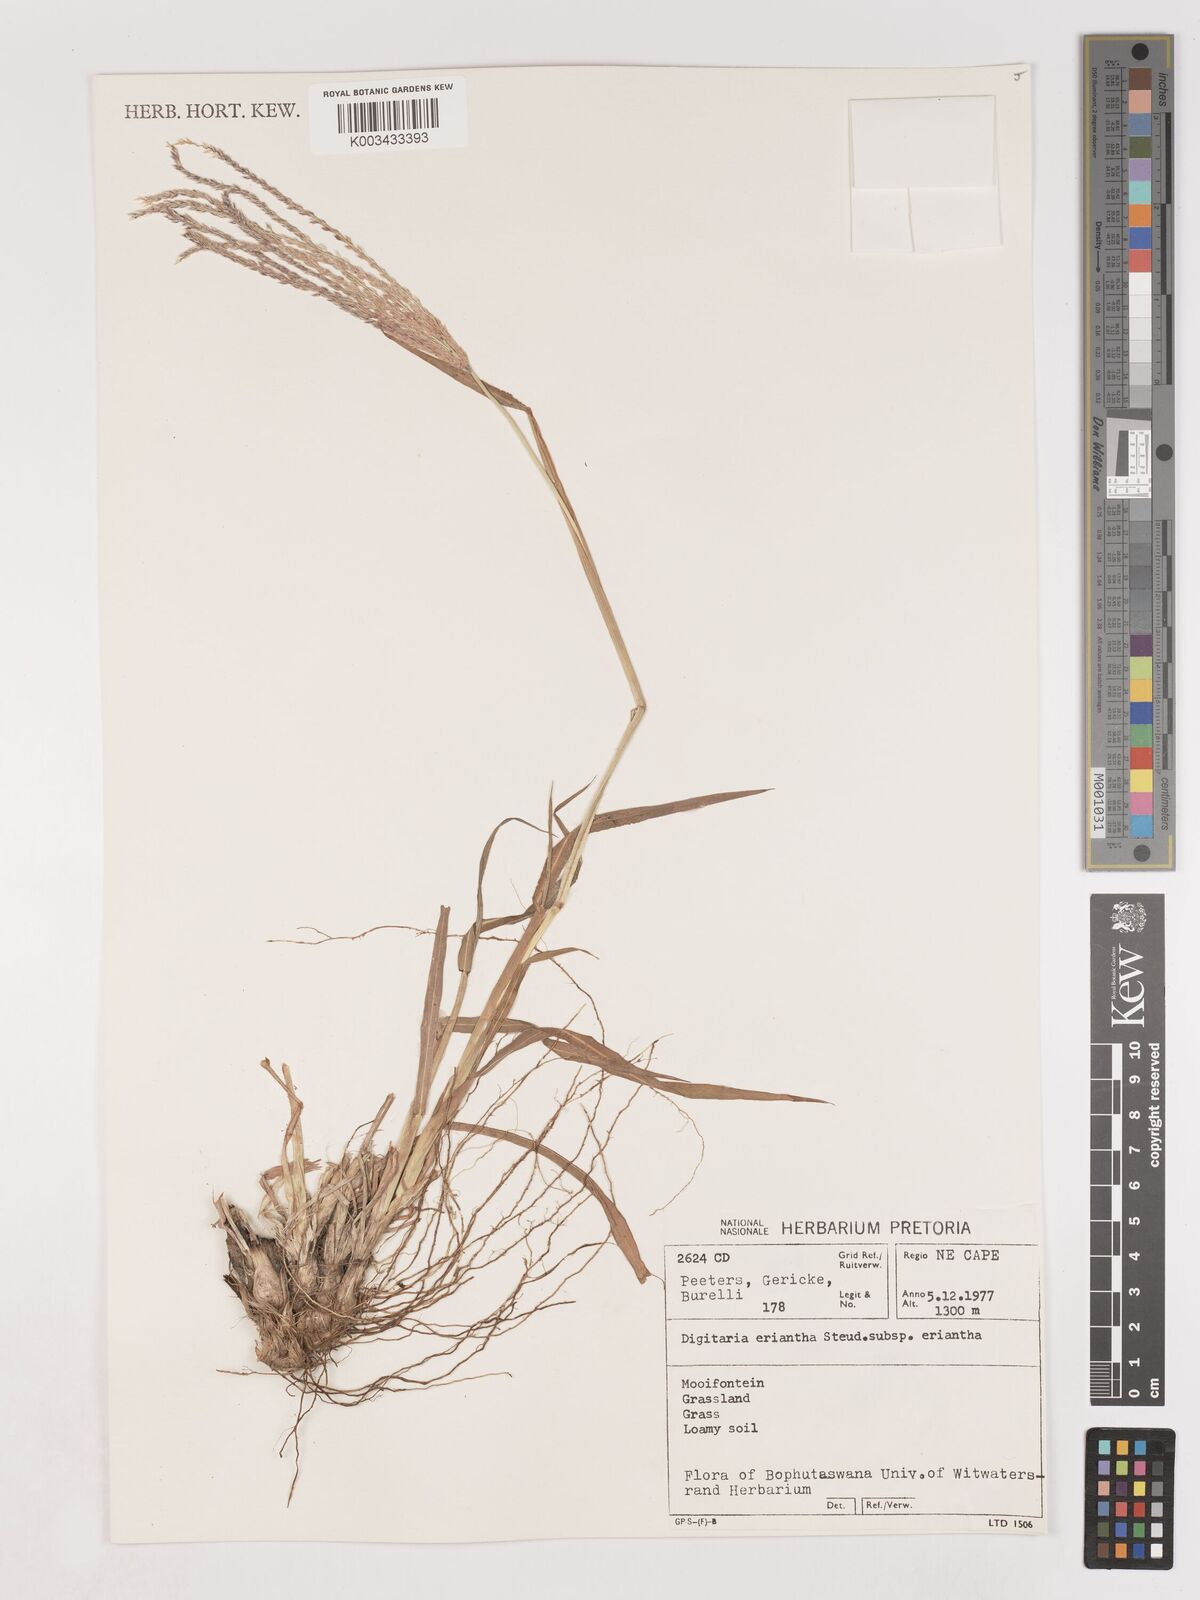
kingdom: Plantae
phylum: Tracheophyta
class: Liliopsida
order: Poales
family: Poaceae
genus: Digitaria
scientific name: Digitaria eriantha
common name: Digitgrass
